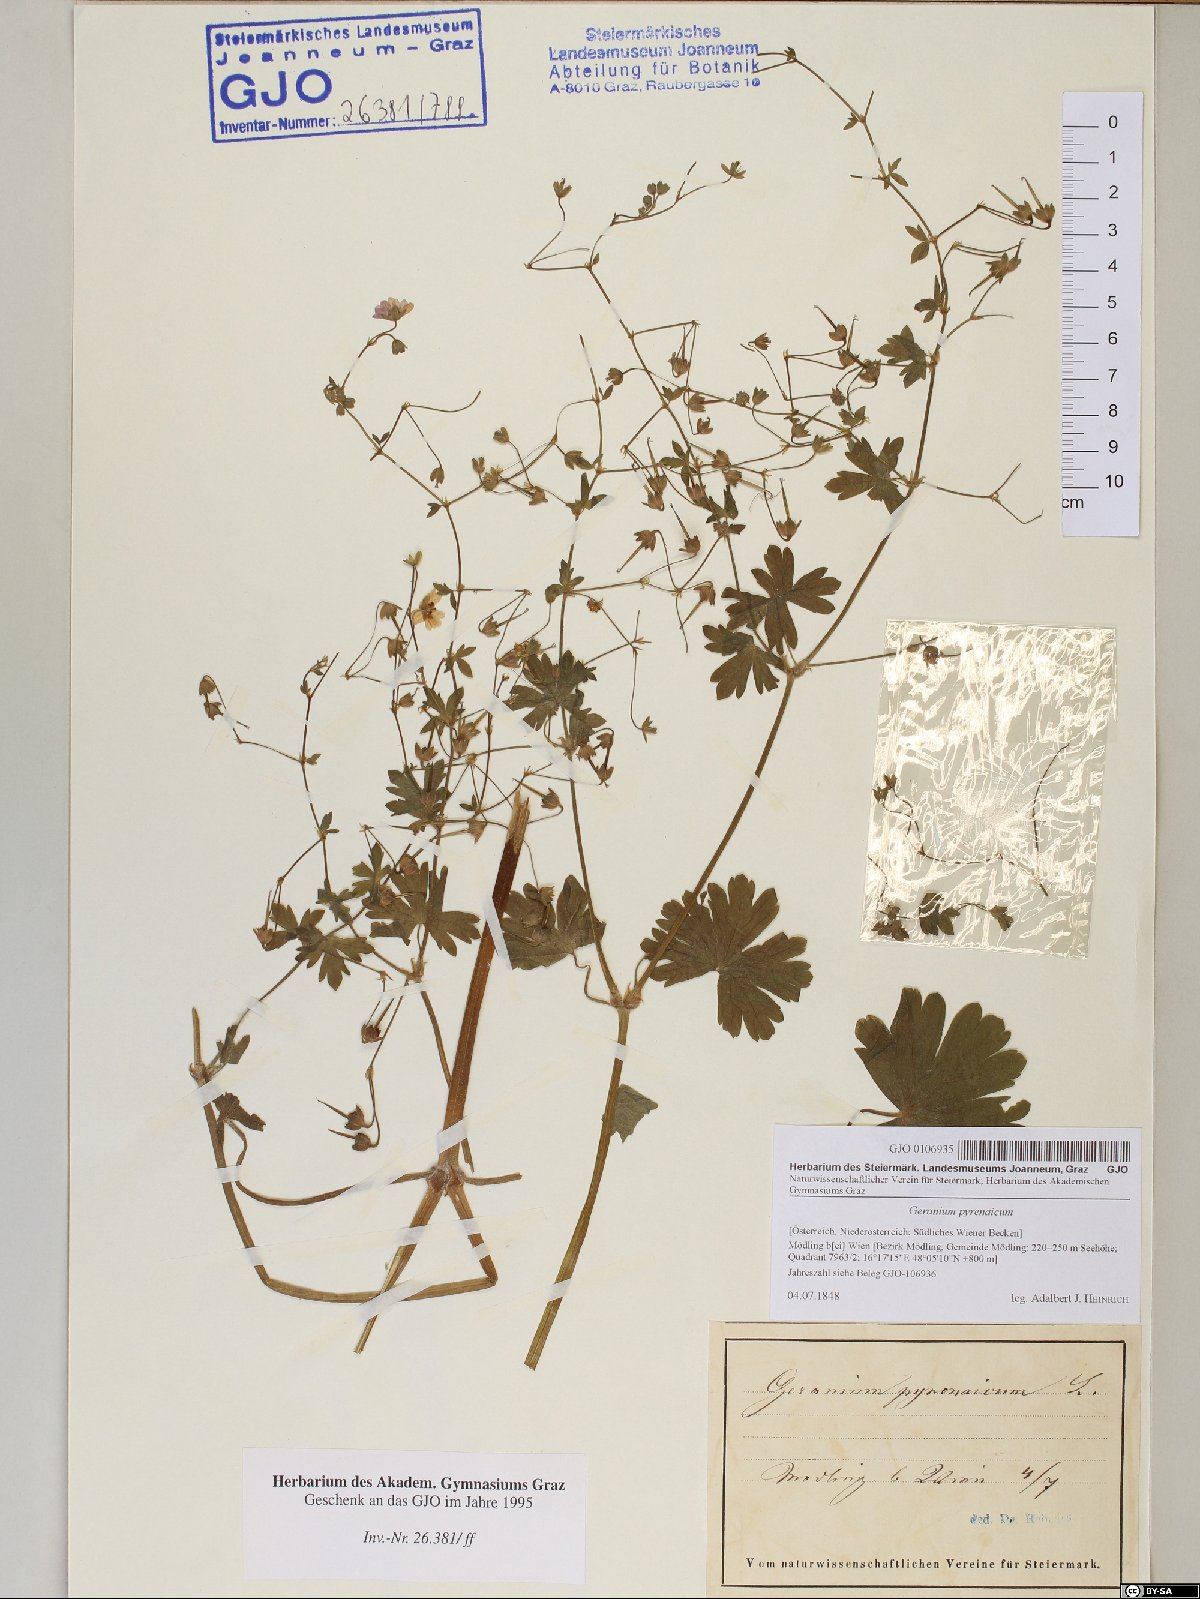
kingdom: Plantae
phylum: Tracheophyta
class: Magnoliopsida
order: Geraniales
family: Geraniaceae
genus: Geranium
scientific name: Geranium pyrenaicum
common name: Hedgerow crane's-bill
